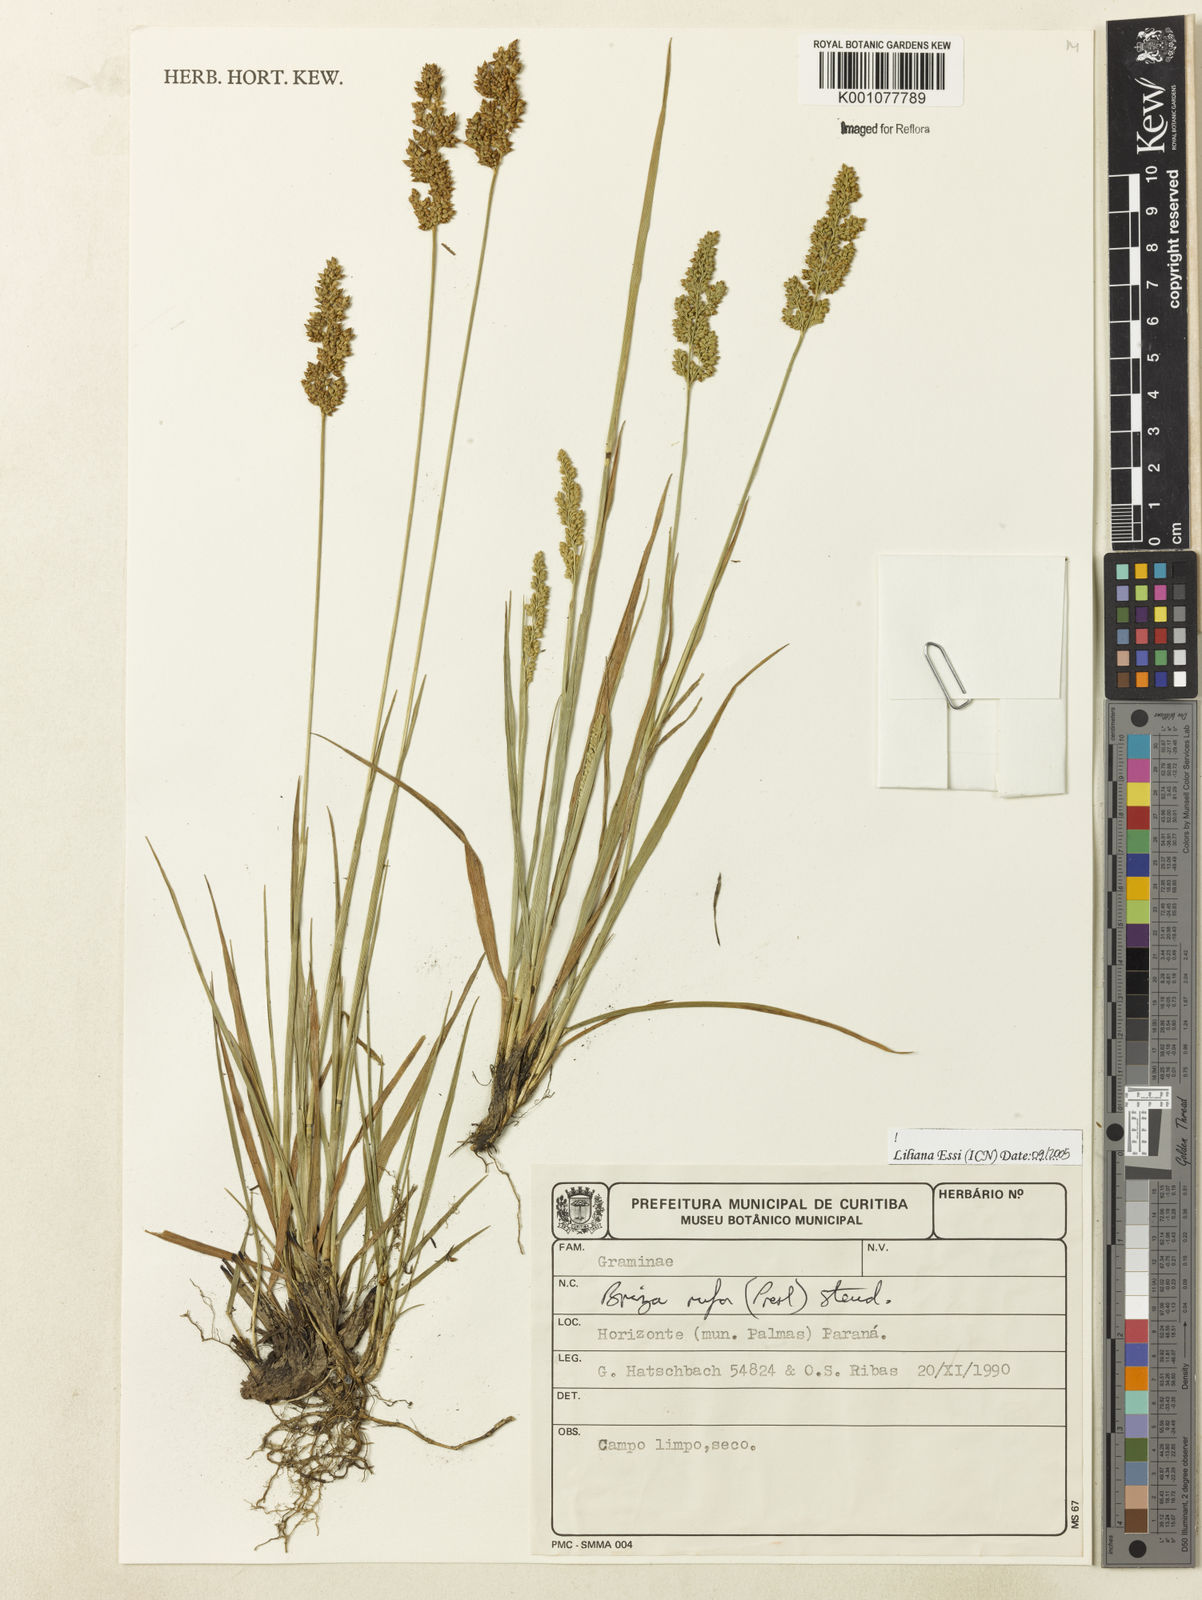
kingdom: Plantae
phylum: Tracheophyta
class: Liliopsida
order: Poales
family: Poaceae
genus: Lombardochloa
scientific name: Lombardochloa rufa
